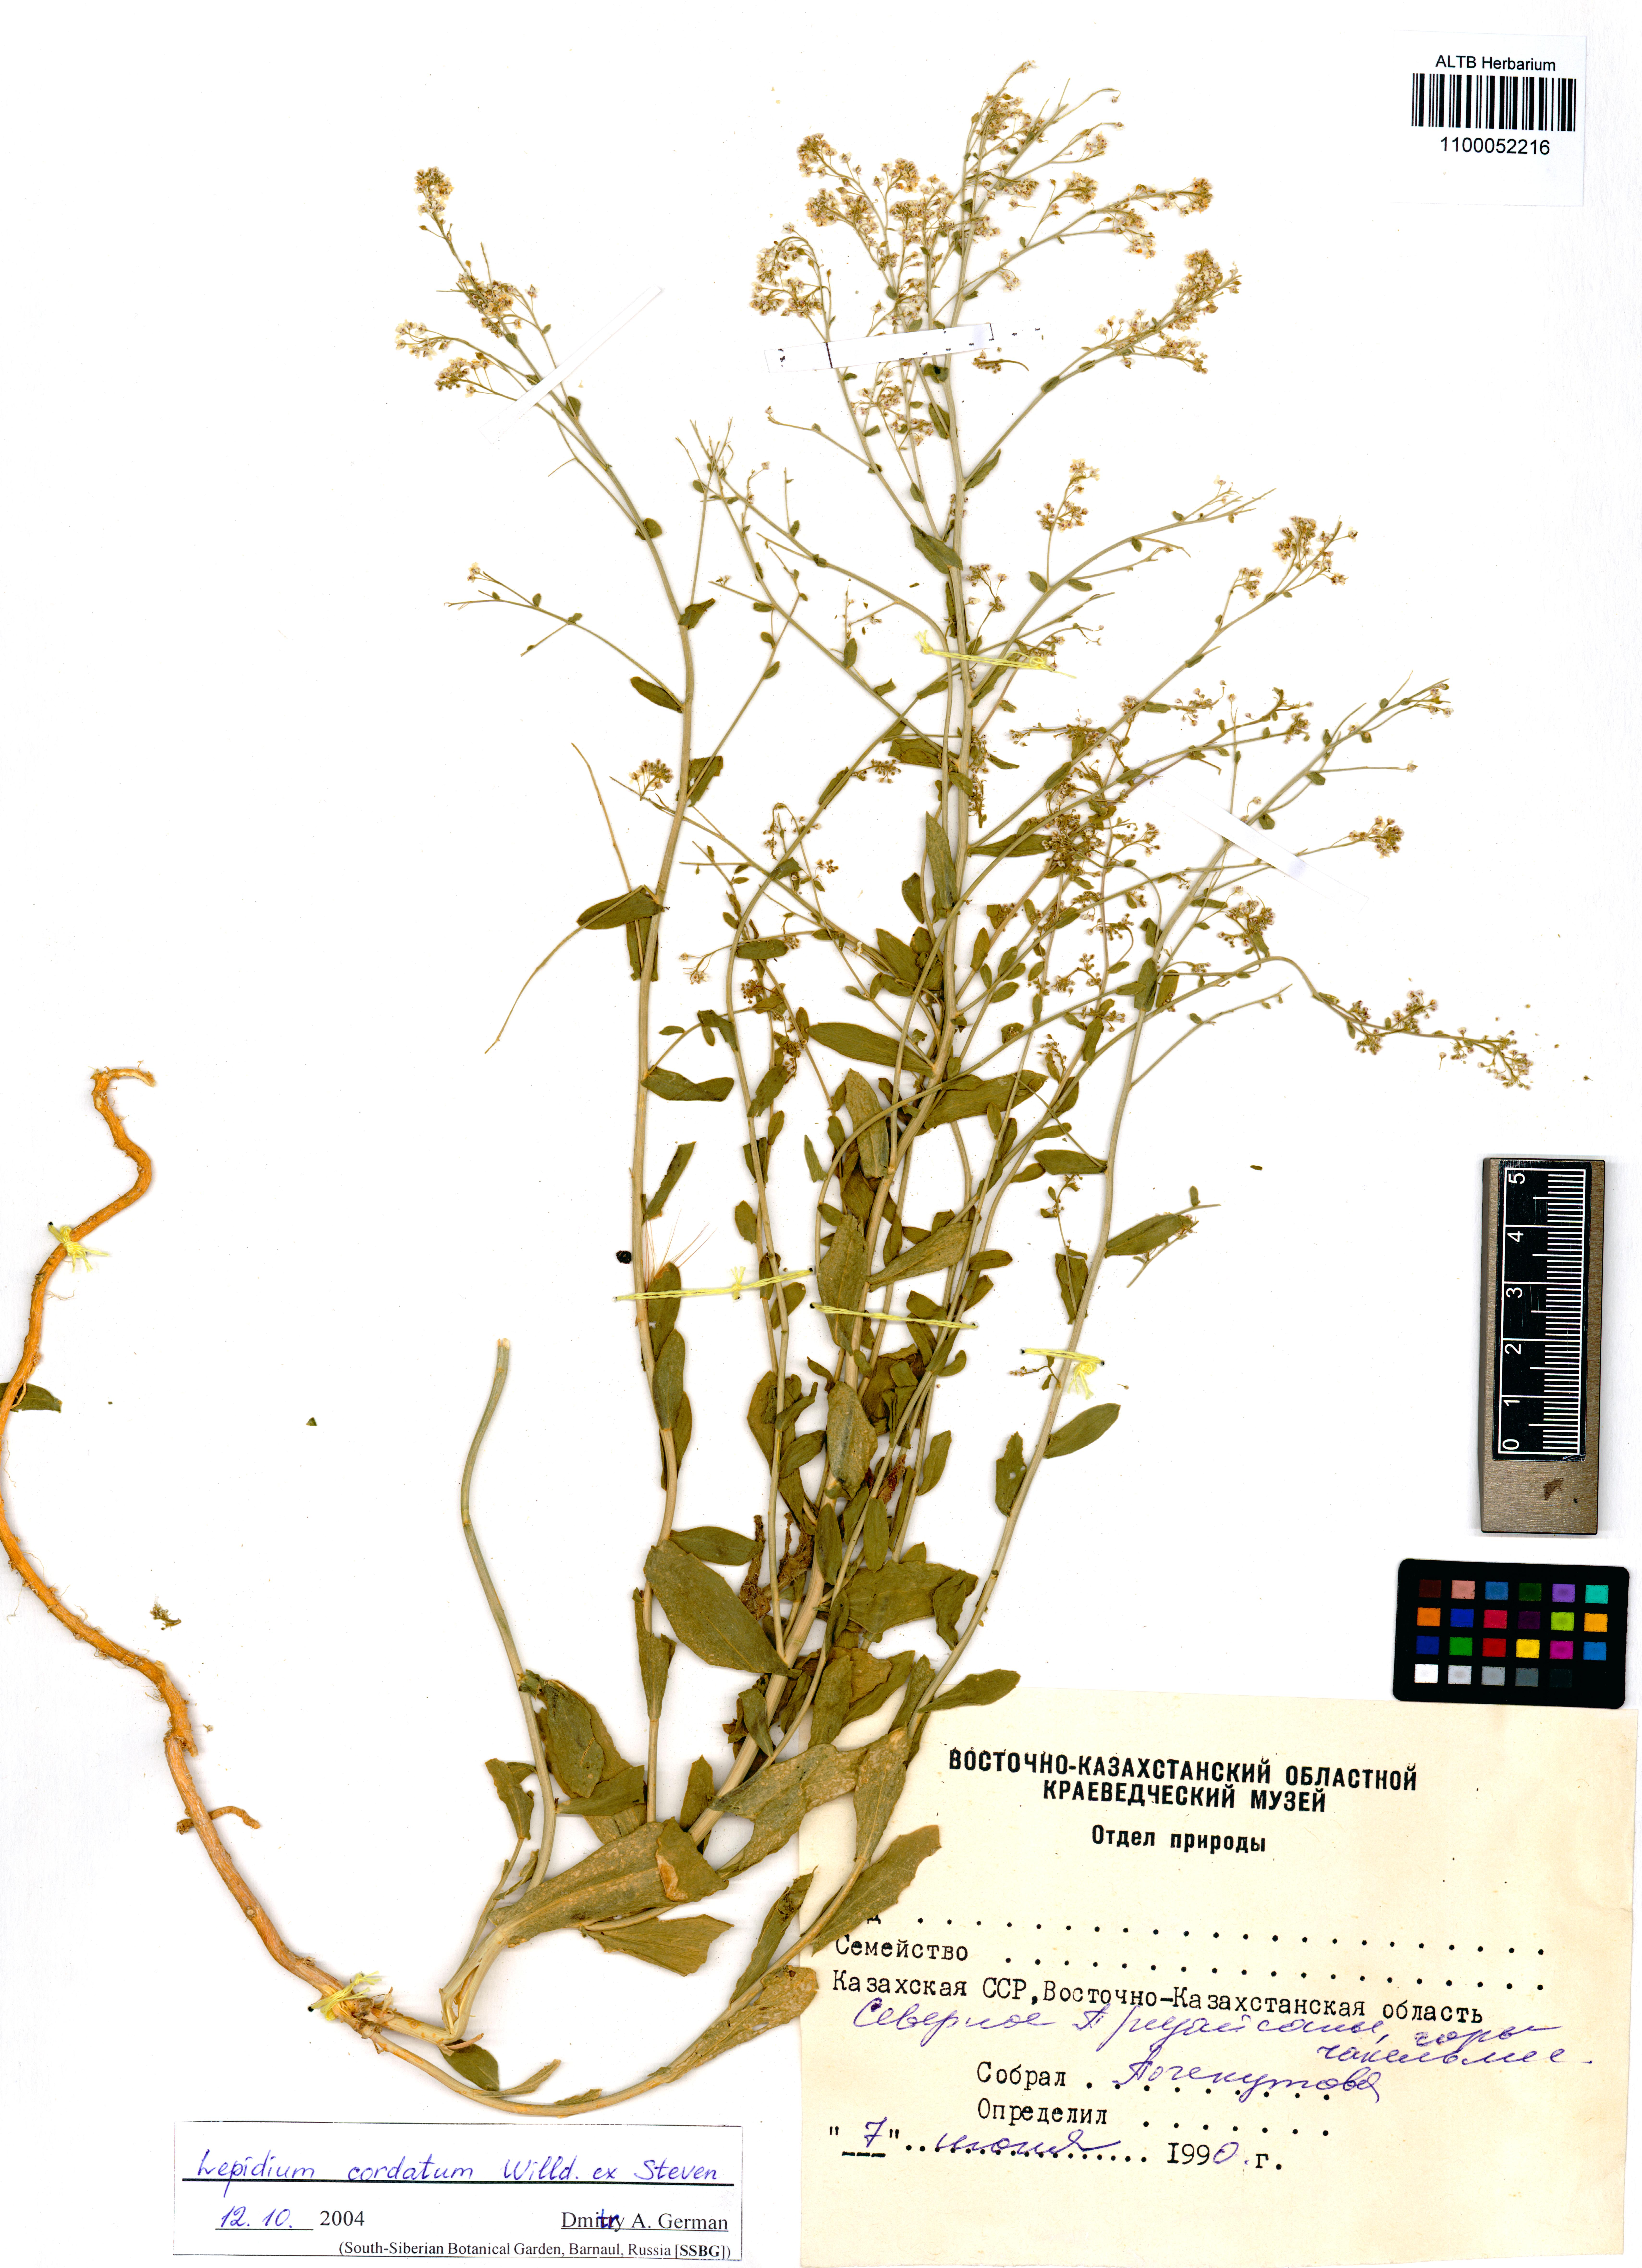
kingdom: Plantae
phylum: Tracheophyta
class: Magnoliopsida
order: Brassicales
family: Brassicaceae
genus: Lepidium
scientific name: Lepidium cordatum
